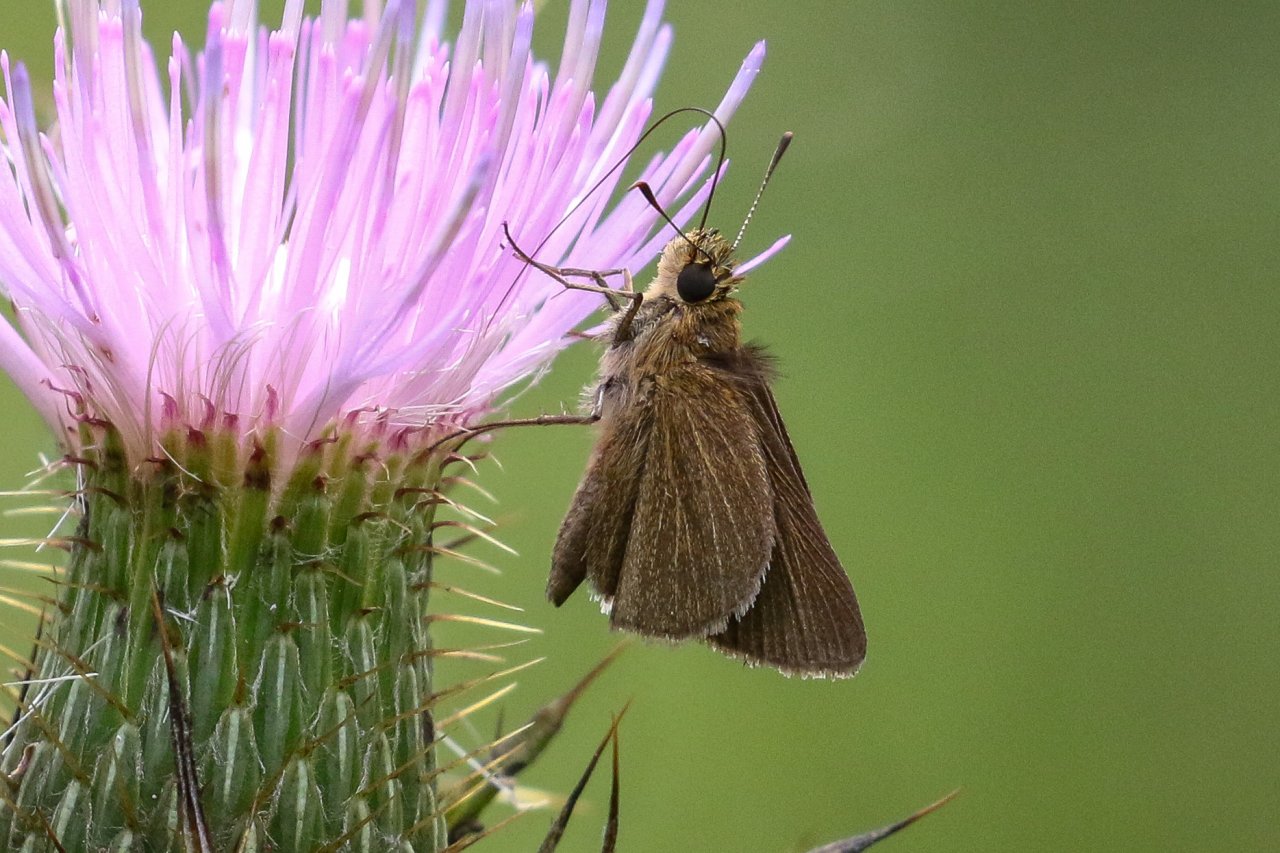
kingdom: Animalia
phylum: Arthropoda
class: Insecta
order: Lepidoptera
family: Hesperiidae
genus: Nastra
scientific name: Nastra lherminier
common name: Swarthy Skipper
